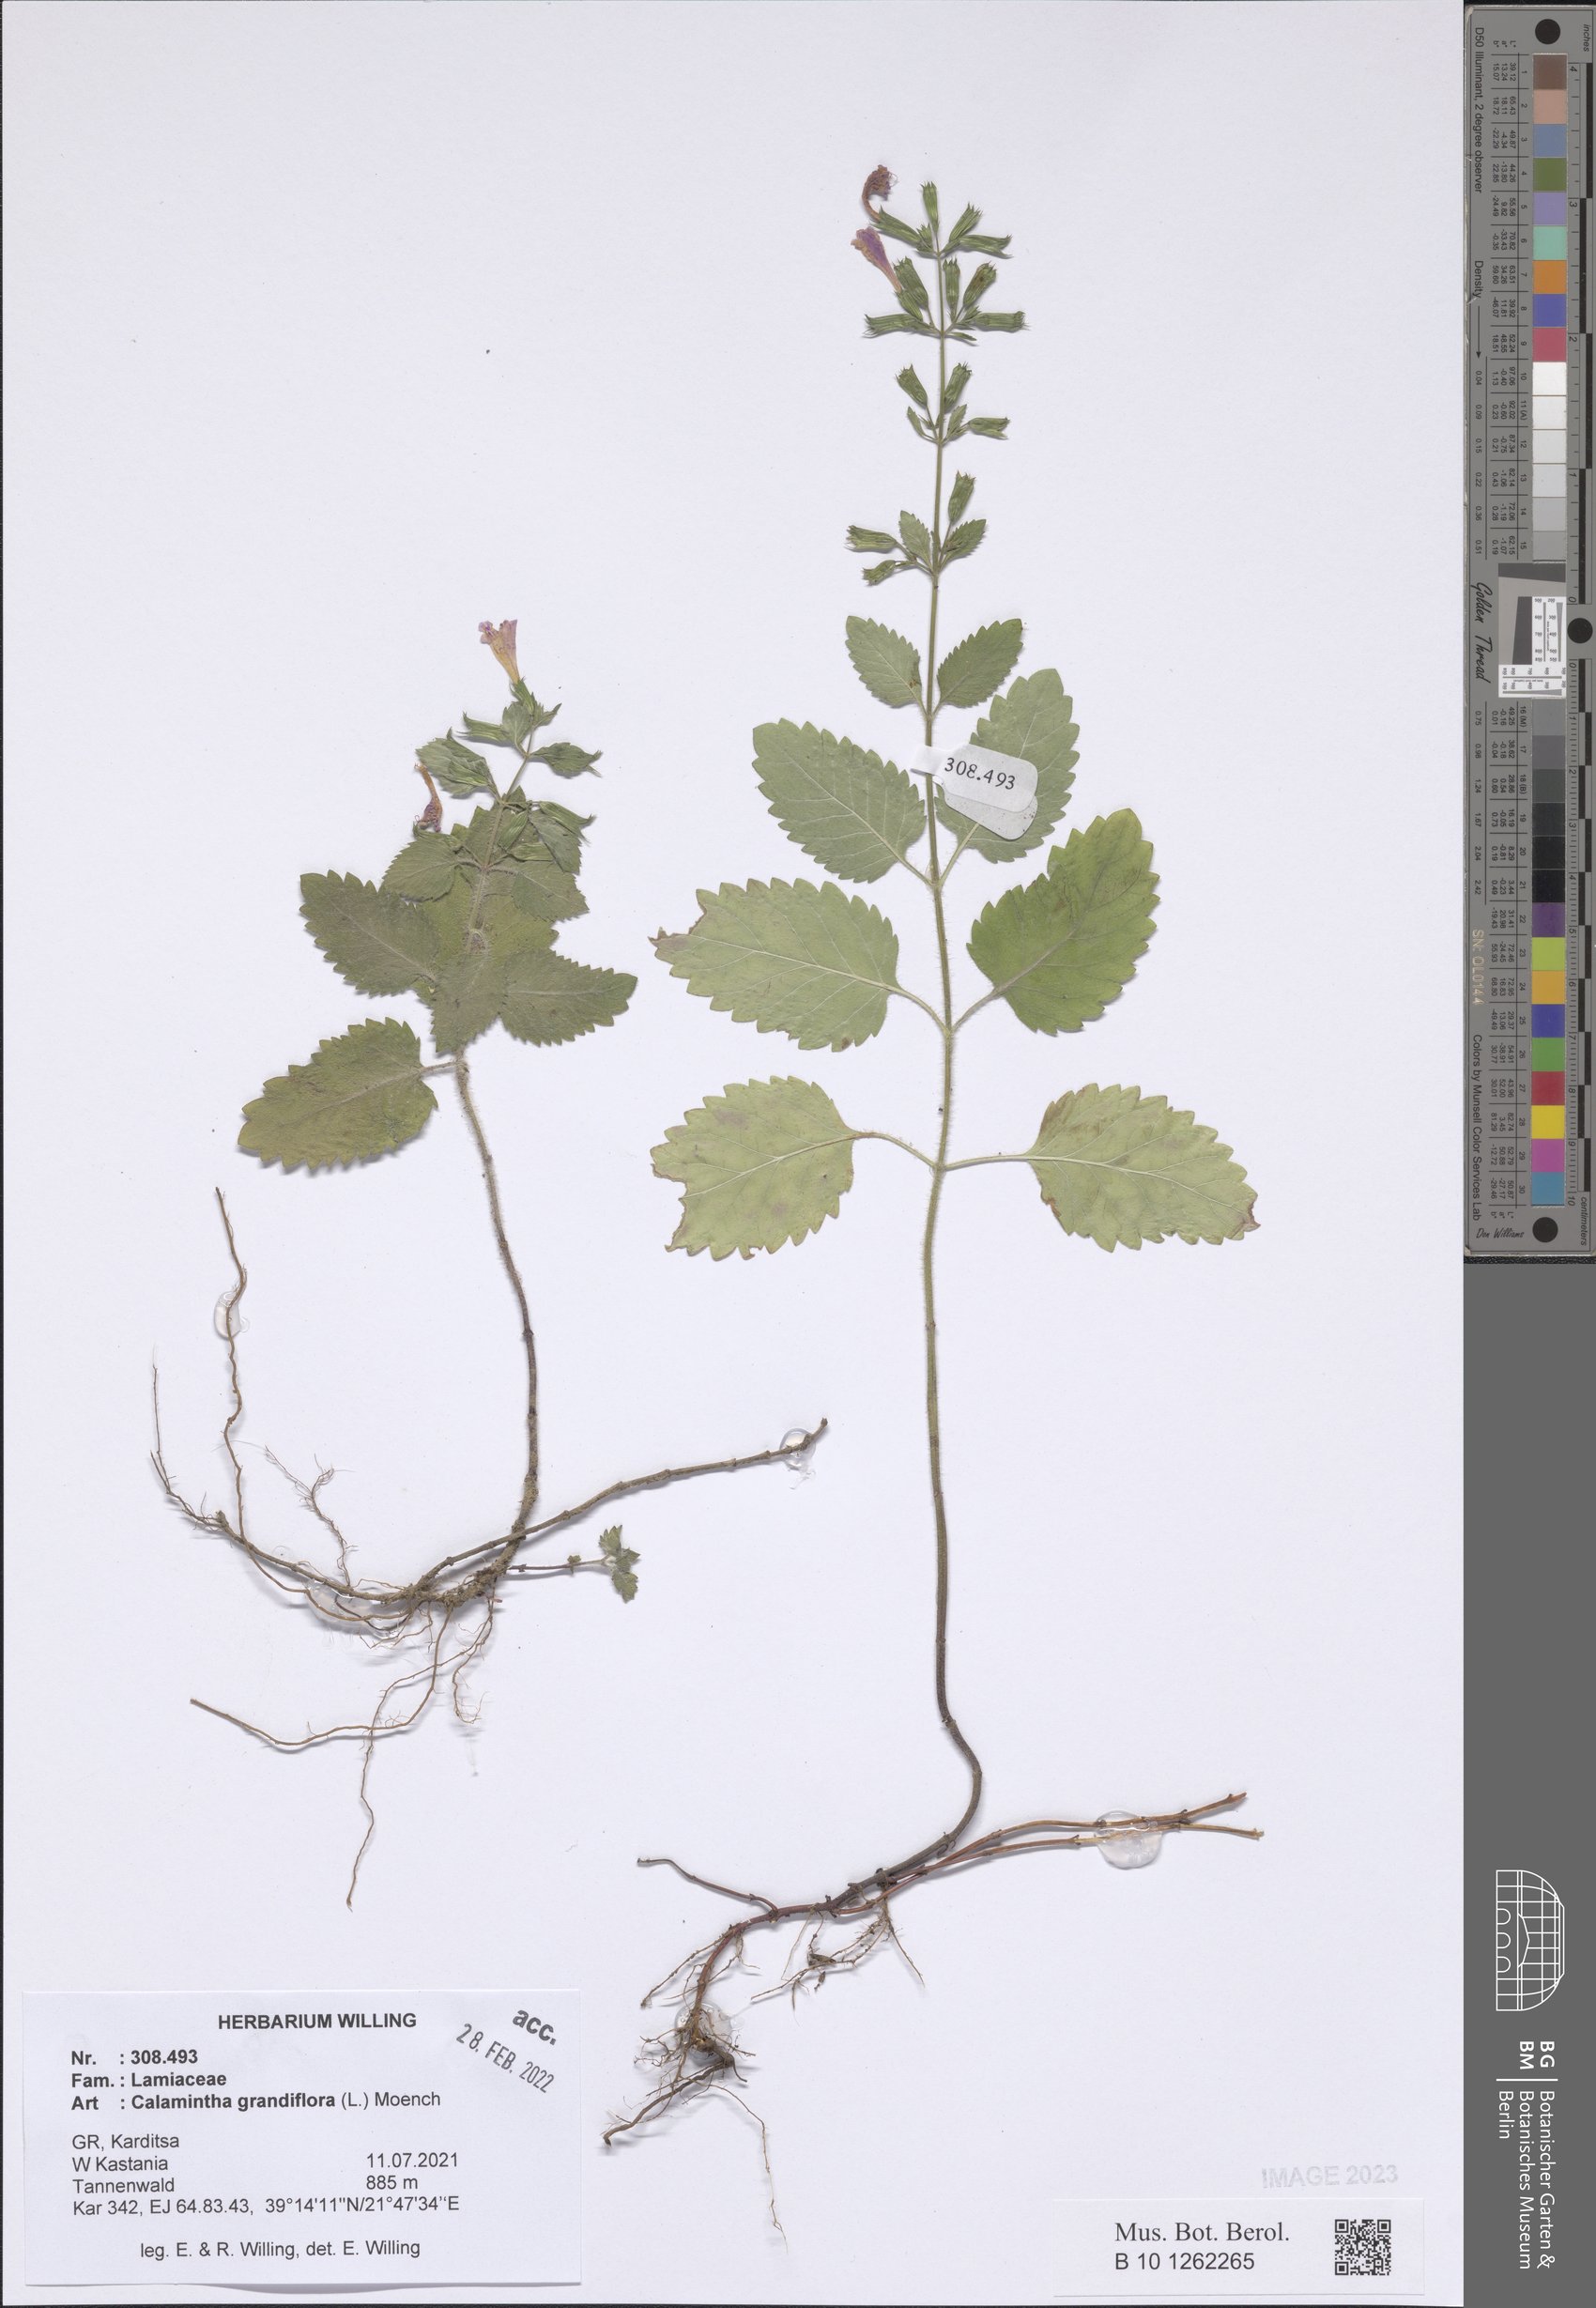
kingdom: Plantae
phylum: Tracheophyta
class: Magnoliopsida
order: Lamiales
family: Lamiaceae
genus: Clinopodium
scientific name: Clinopodium grandiflorum
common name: Greater calamint
